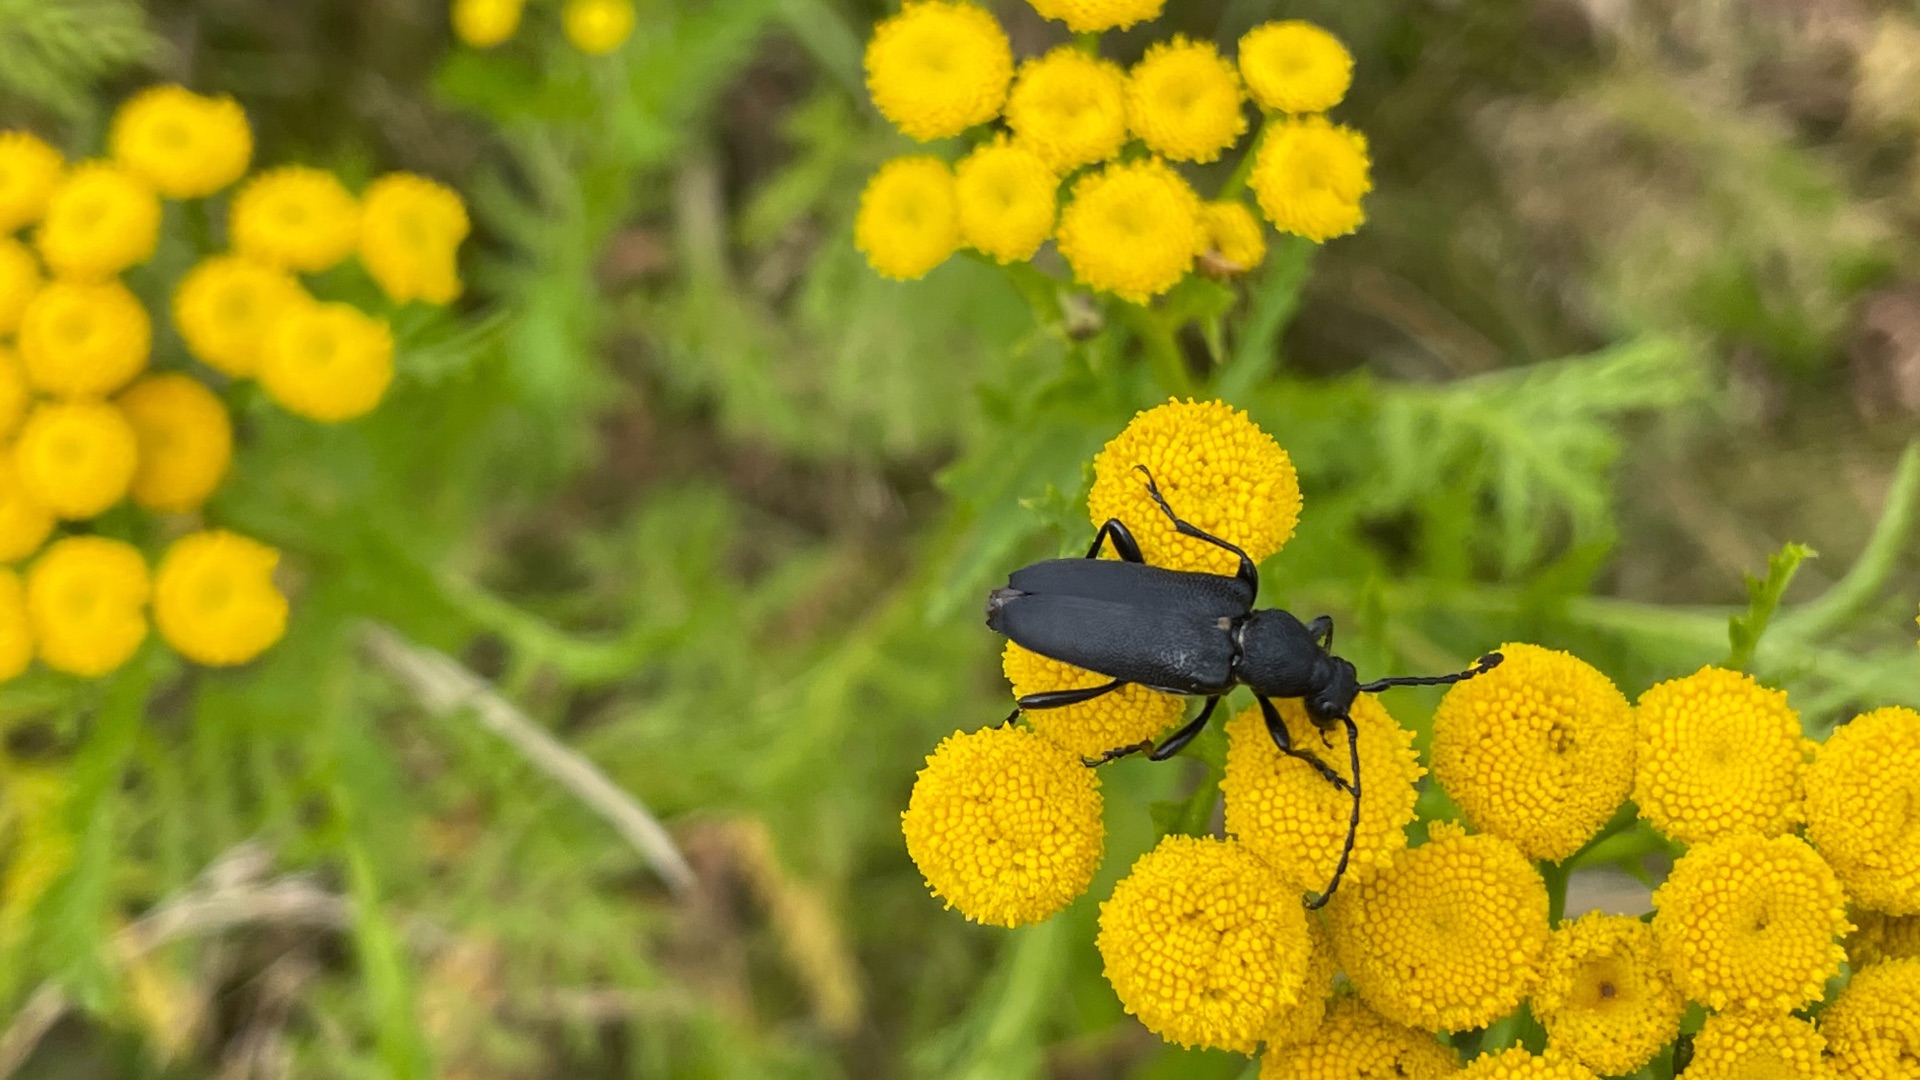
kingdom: Animalia
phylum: Arthropoda
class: Insecta
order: Coleoptera
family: Cerambycidae
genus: Stictoleptura
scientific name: Stictoleptura scutellata
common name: Sort blomsterbuk
